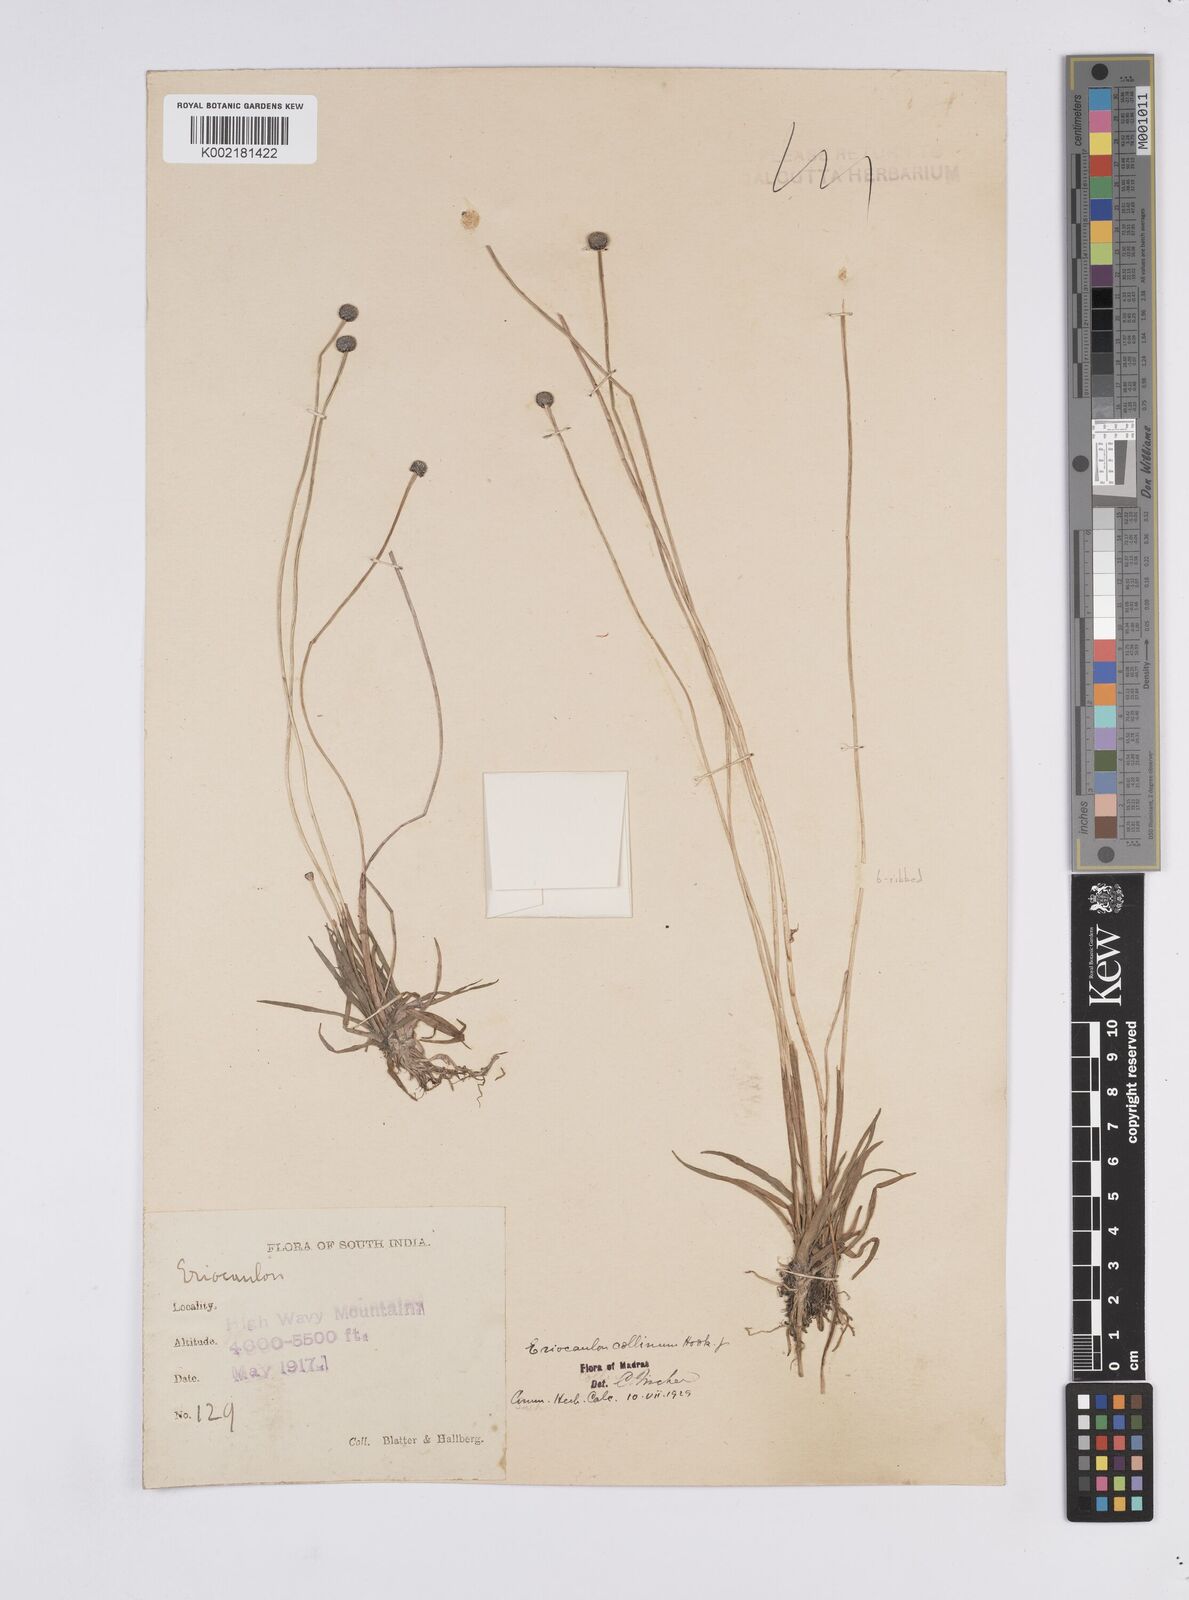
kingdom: Plantae
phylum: Tracheophyta
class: Liliopsida
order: Poales
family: Eriocaulaceae
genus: Eriocaulon
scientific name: Eriocaulon odoratum
